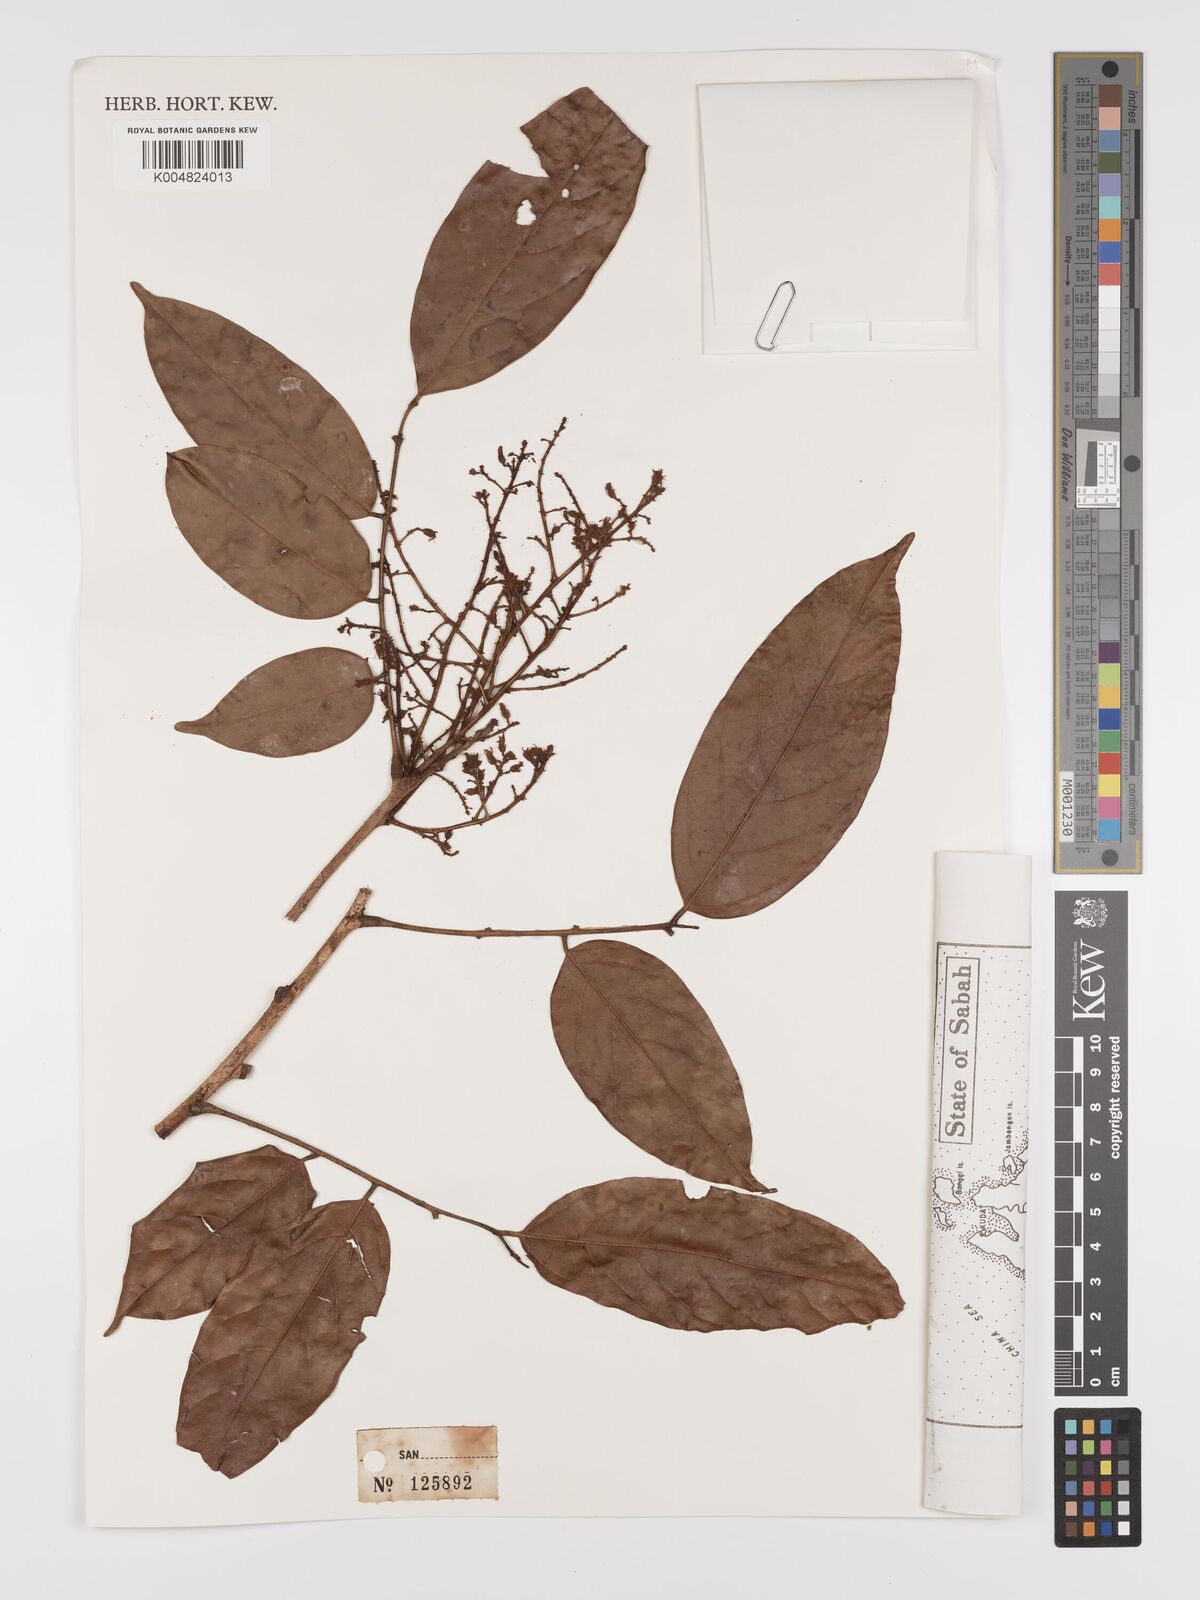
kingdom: Plantae
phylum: Tracheophyta
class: Magnoliopsida
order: Oxalidales
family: Connaraceae
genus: Connarus
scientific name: Connarus odoratus
